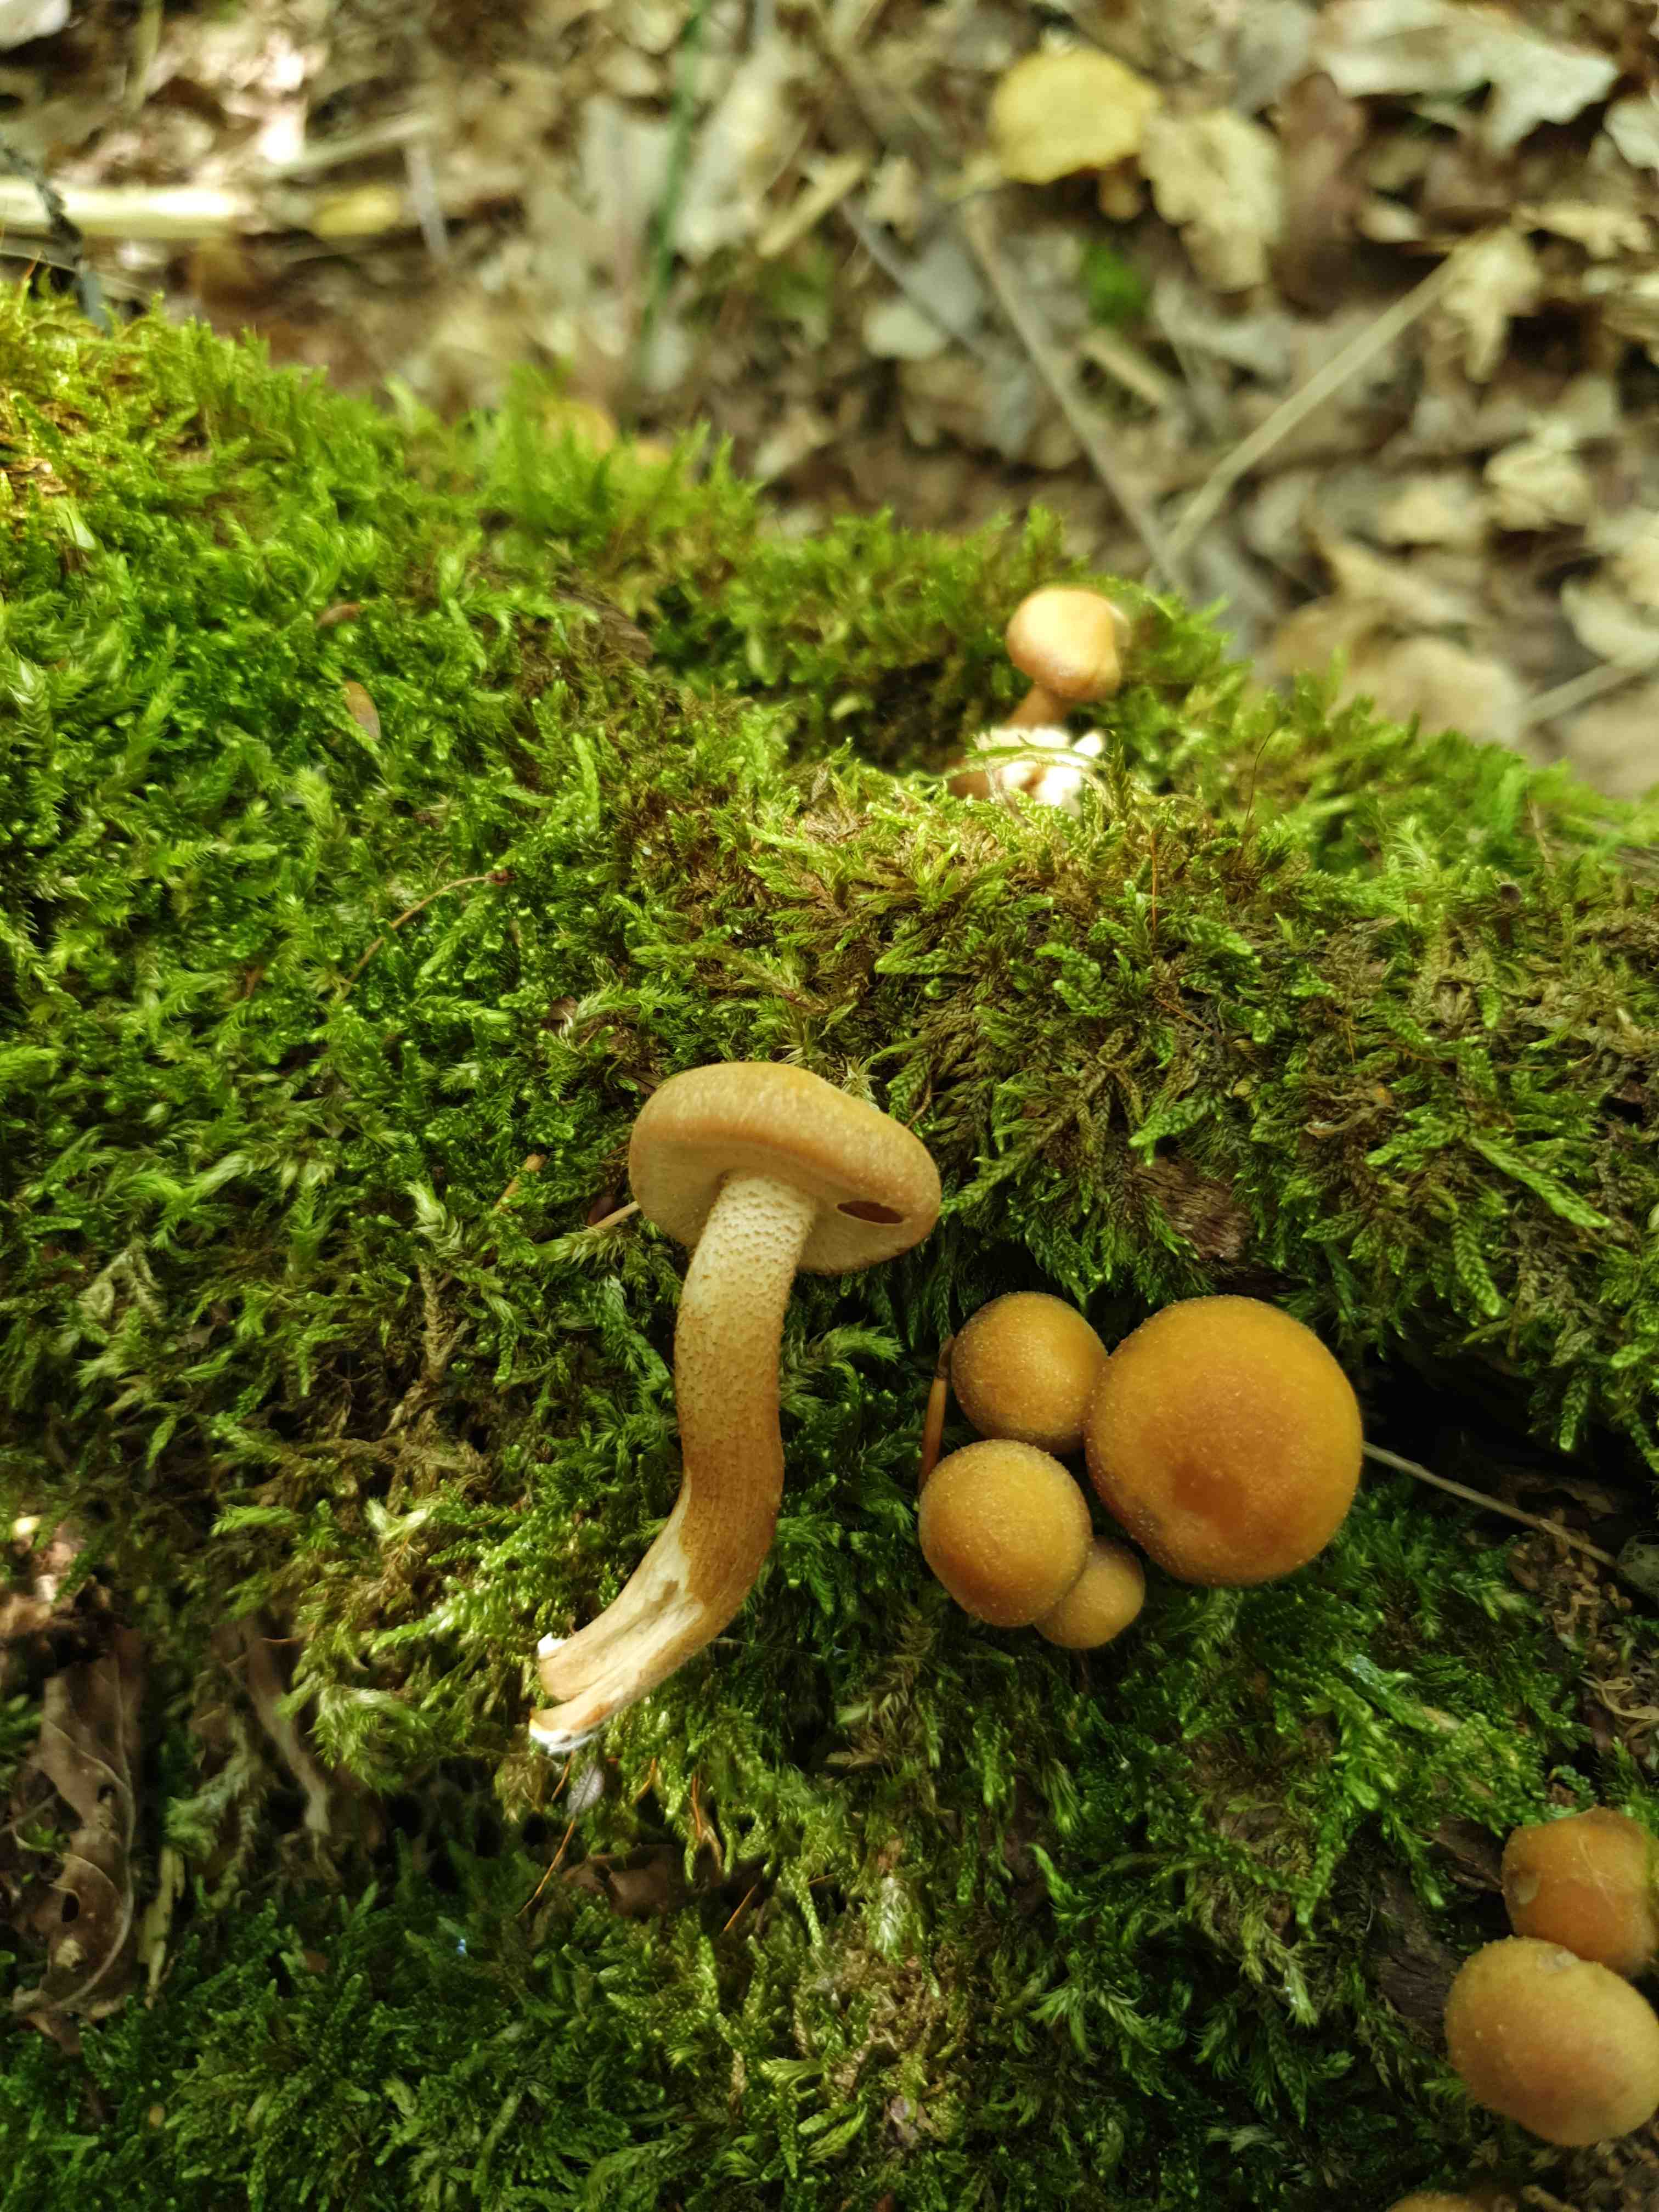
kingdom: Fungi
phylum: Basidiomycota
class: Agaricomycetes
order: Agaricales
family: Strophariaceae
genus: Kuehneromyces
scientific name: Kuehneromyces mutabilis
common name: foranderlig skælhat
